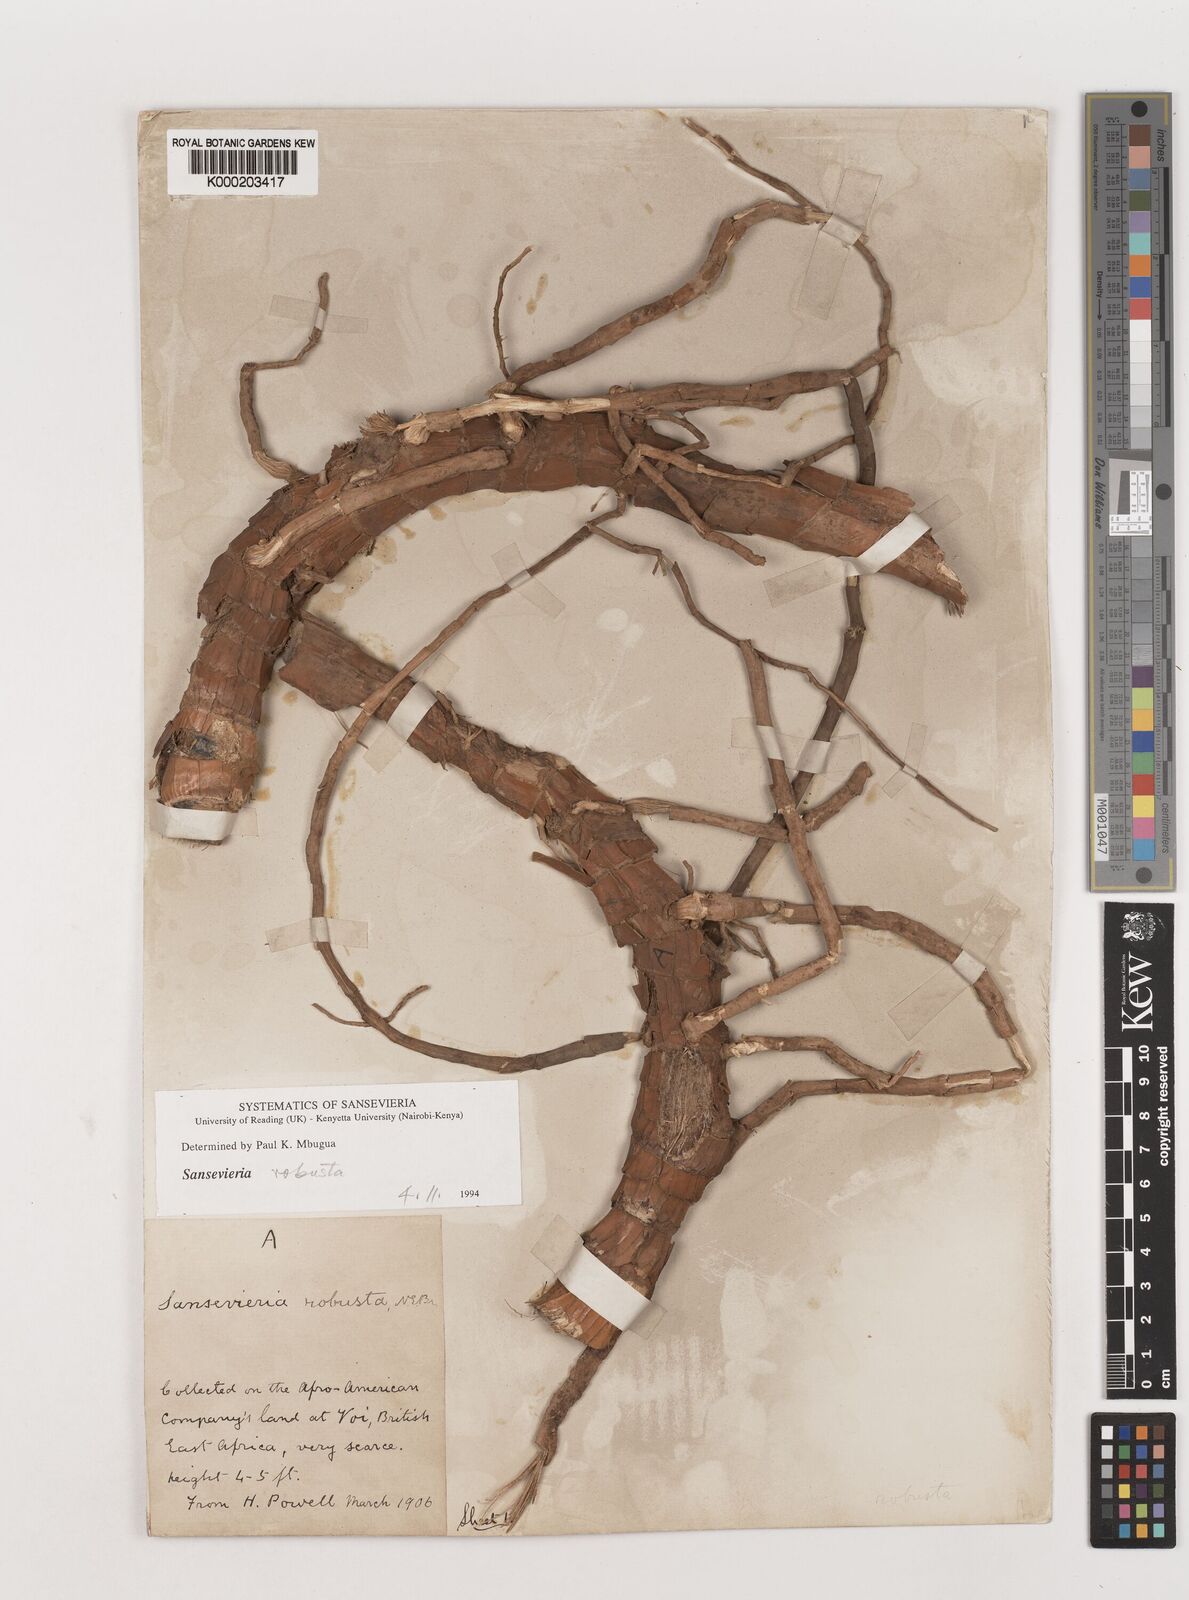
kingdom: Plantae
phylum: Tracheophyta
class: Liliopsida
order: Asparagales
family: Asparagaceae
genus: Dracaena
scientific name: Dracaena perrotii
